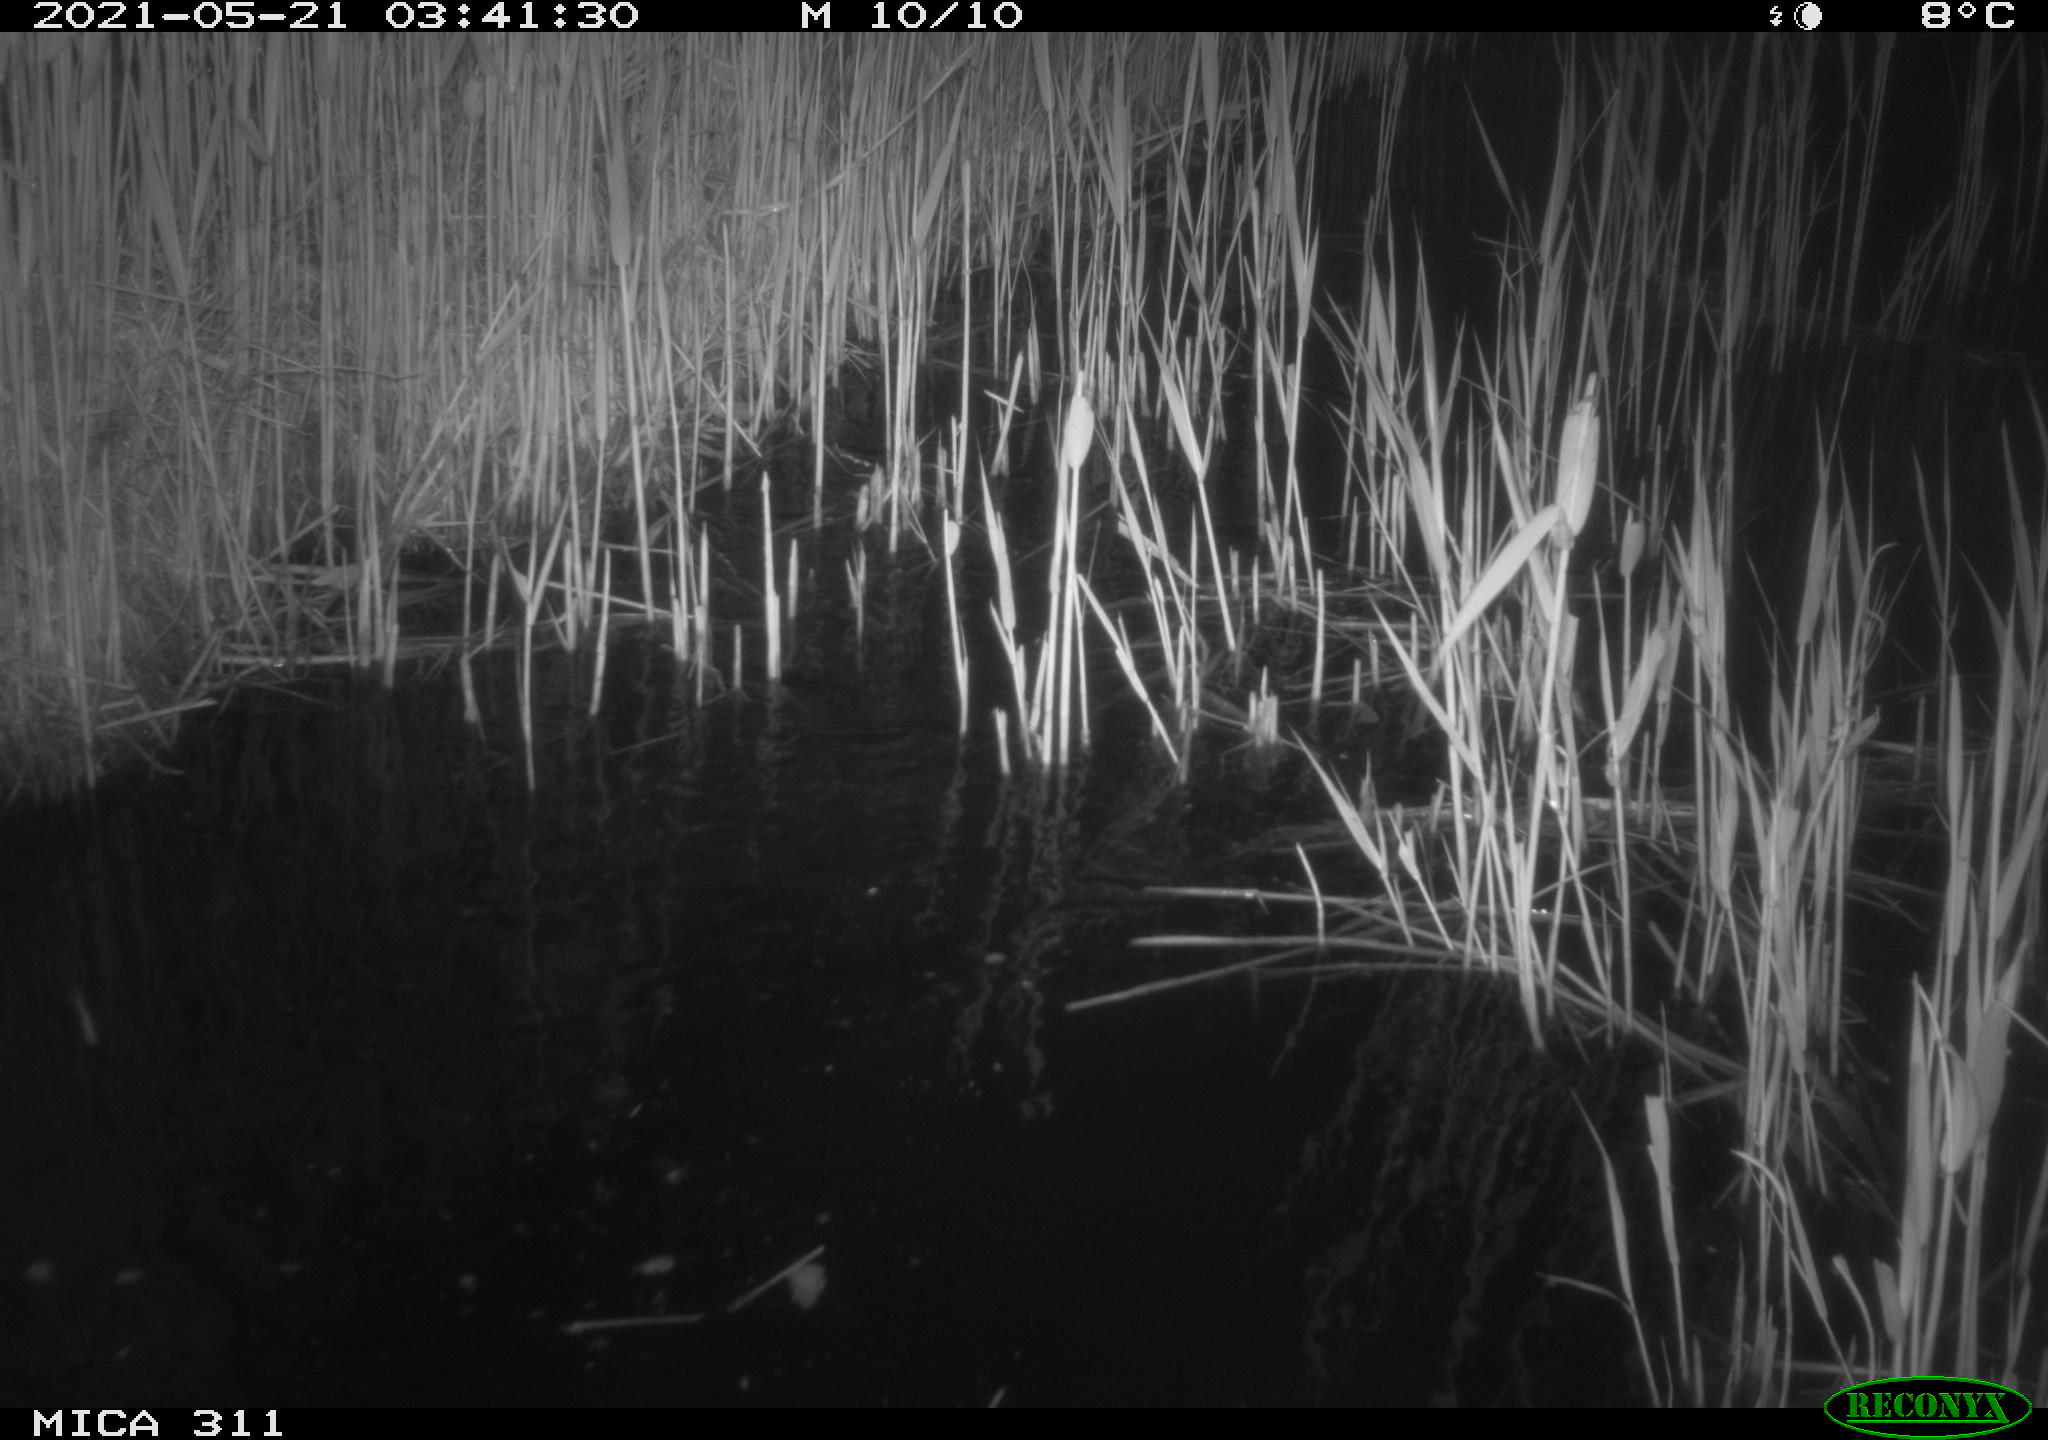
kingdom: Animalia
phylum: Chordata
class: Aves
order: Anseriformes
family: Anatidae
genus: Anas
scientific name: Anas
